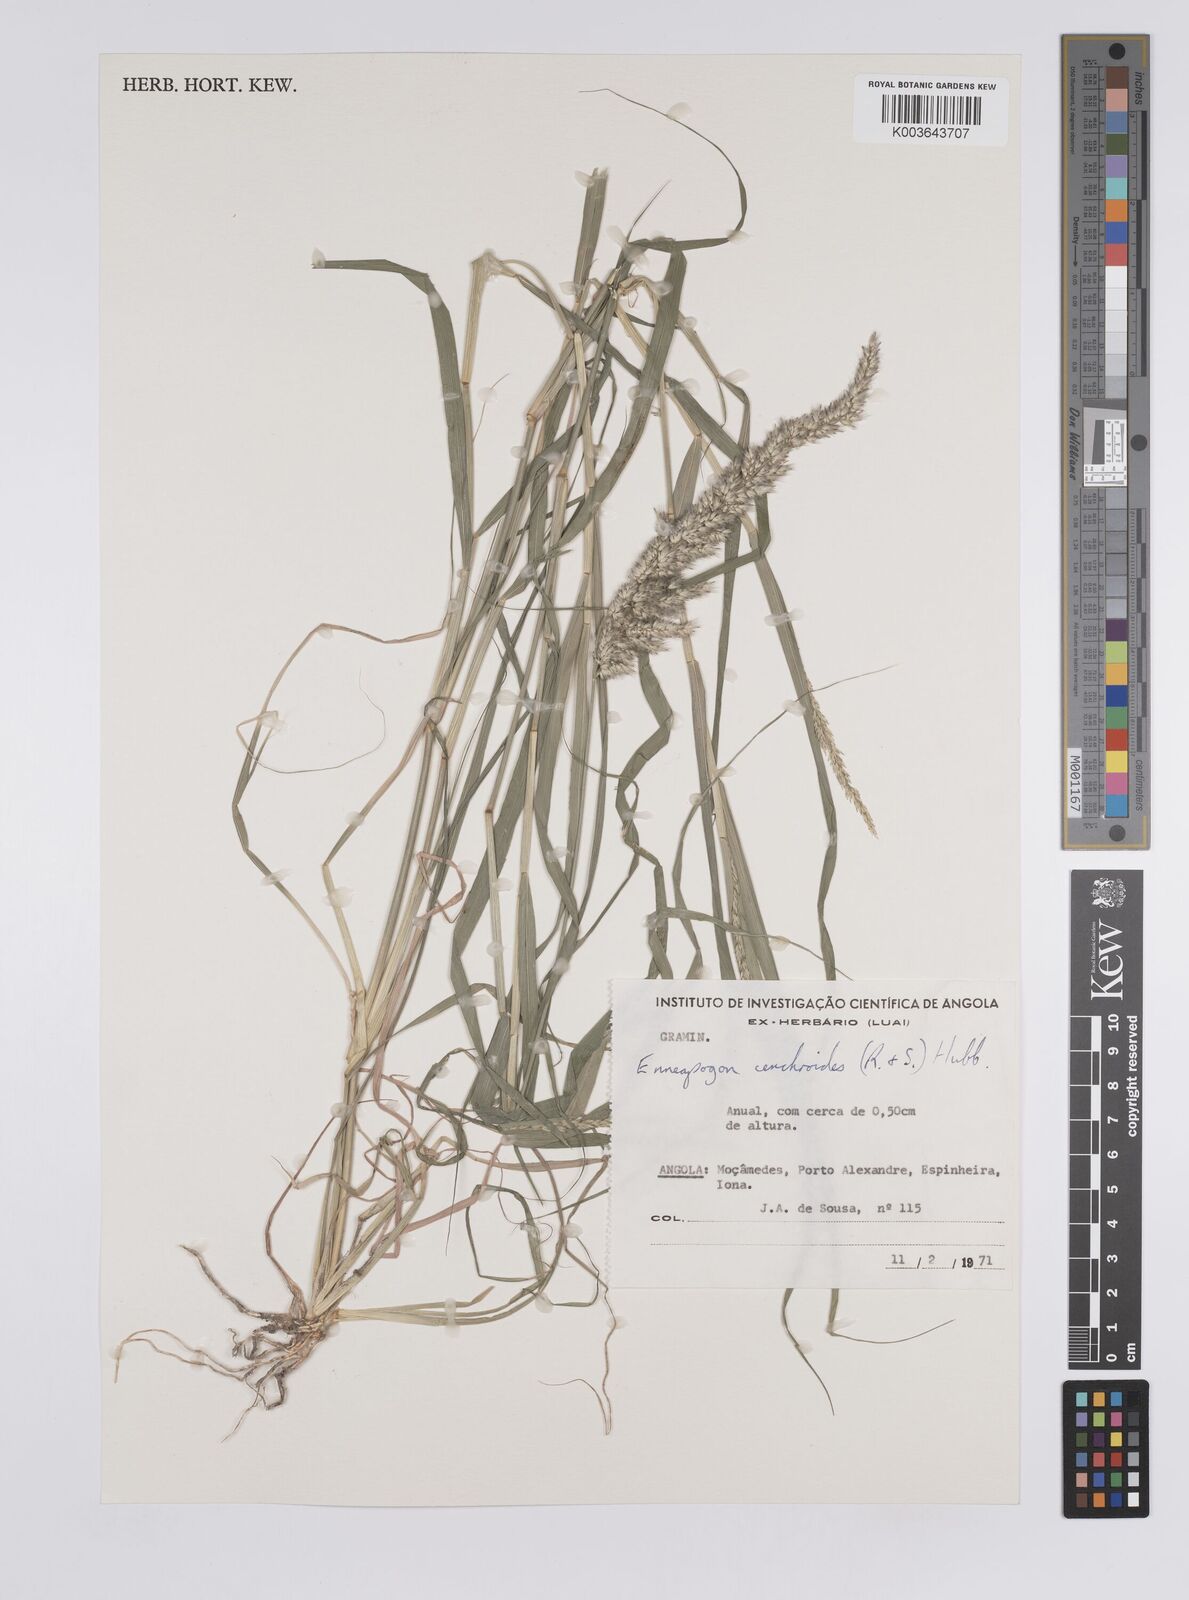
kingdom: Plantae
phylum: Tracheophyta
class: Liliopsida
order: Poales
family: Poaceae
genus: Enneapogon
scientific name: Enneapogon cenchroides
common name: Soft feather pappusgrass
